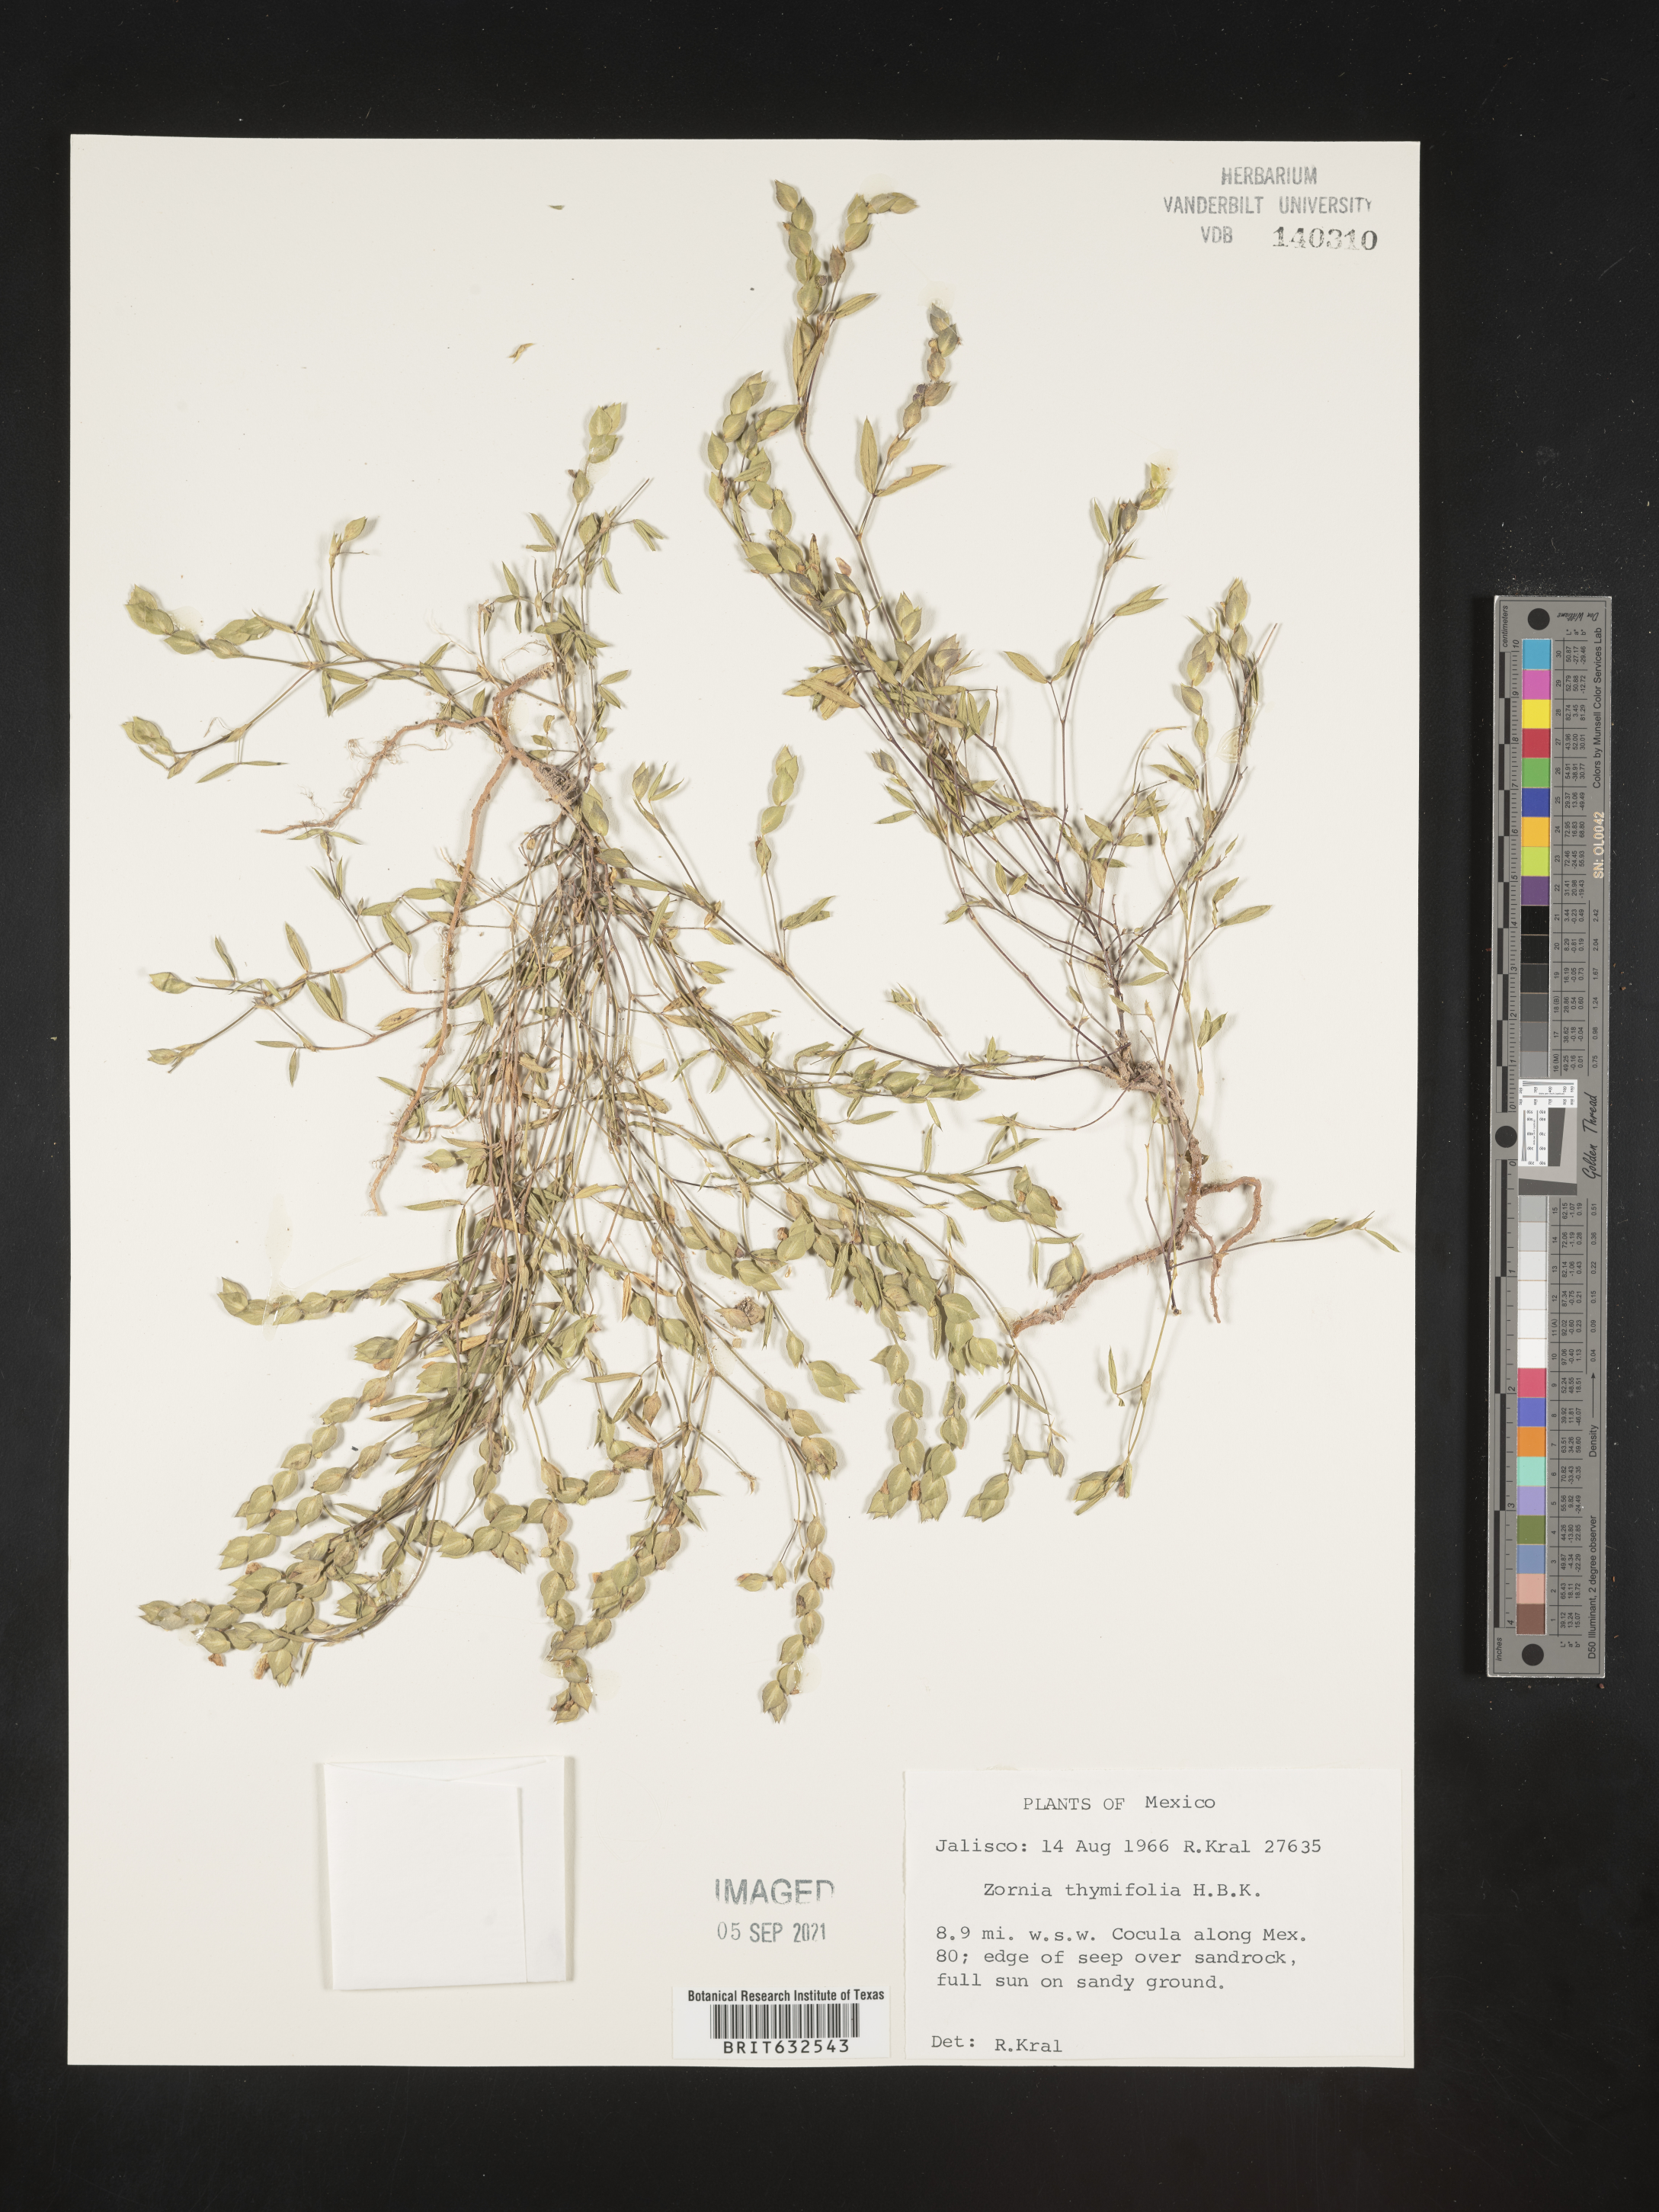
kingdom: Plantae
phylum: Tracheophyta
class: Magnoliopsida
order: Fabales
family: Fabaceae
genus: Zornia
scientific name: Zornia
